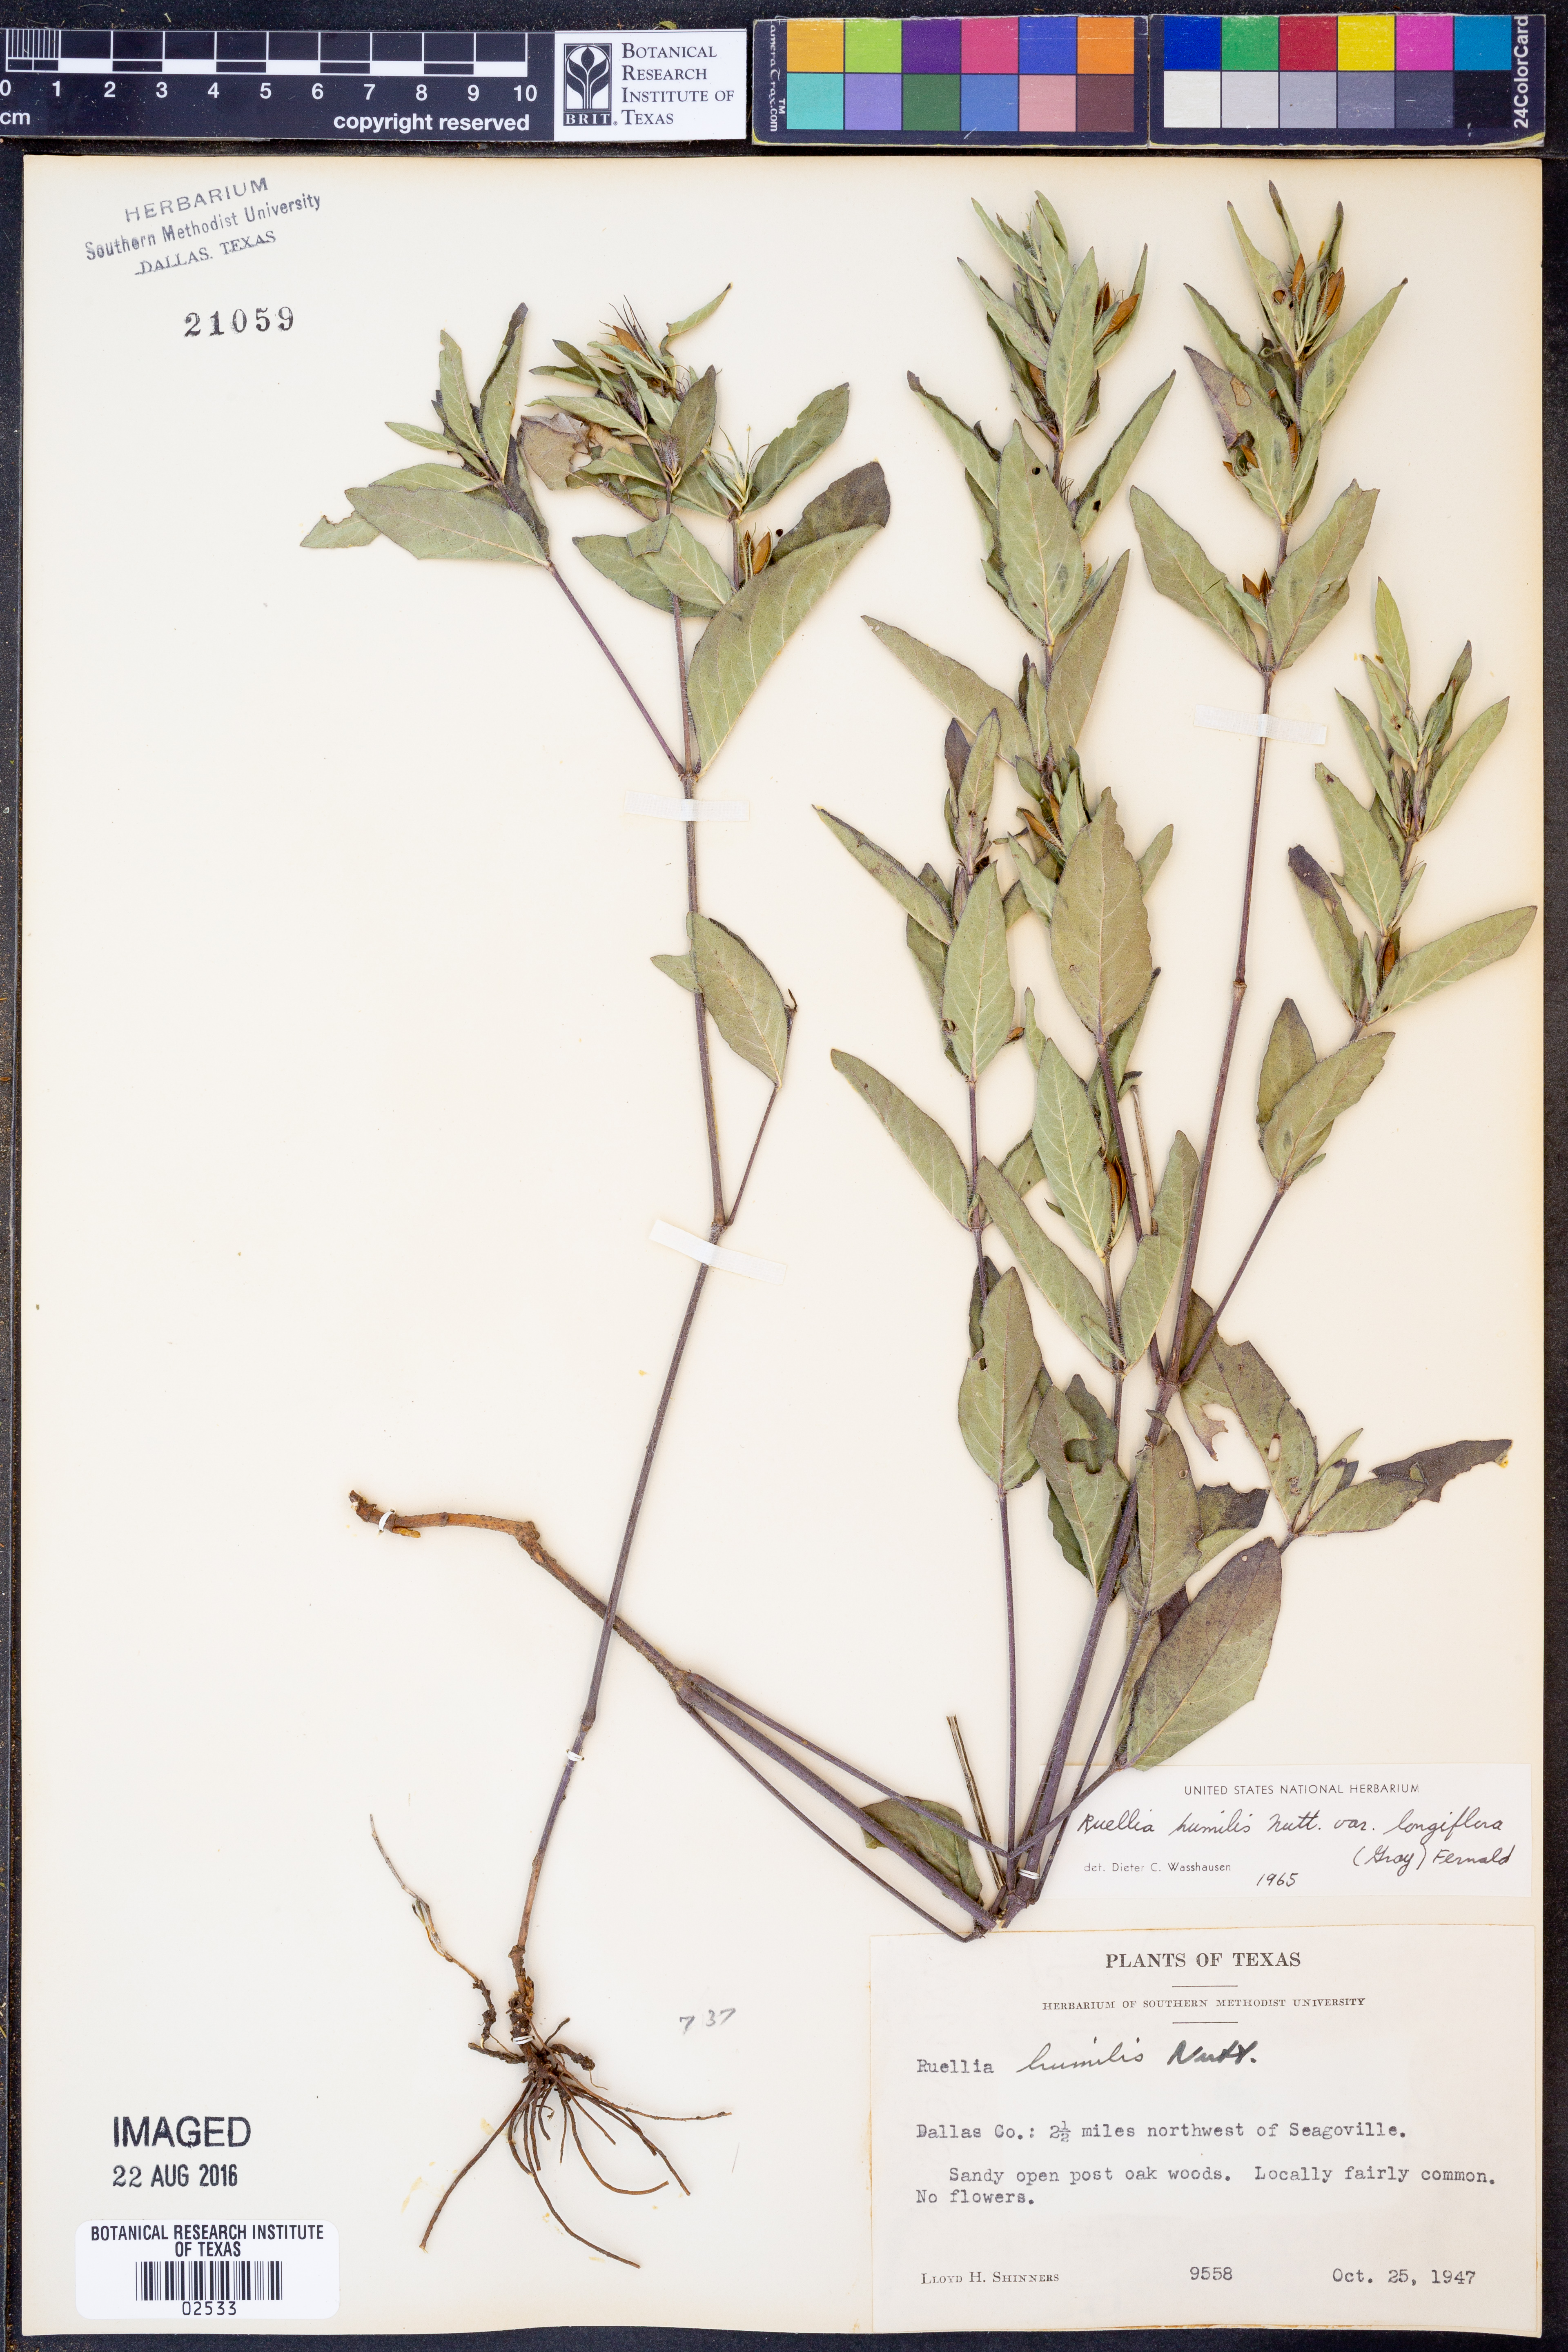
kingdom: Plantae
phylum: Tracheophyta
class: Magnoliopsida
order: Lamiales
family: Acanthaceae
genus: Ruellia
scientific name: Ruellia humilis
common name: Fringe-leaf ruellia
